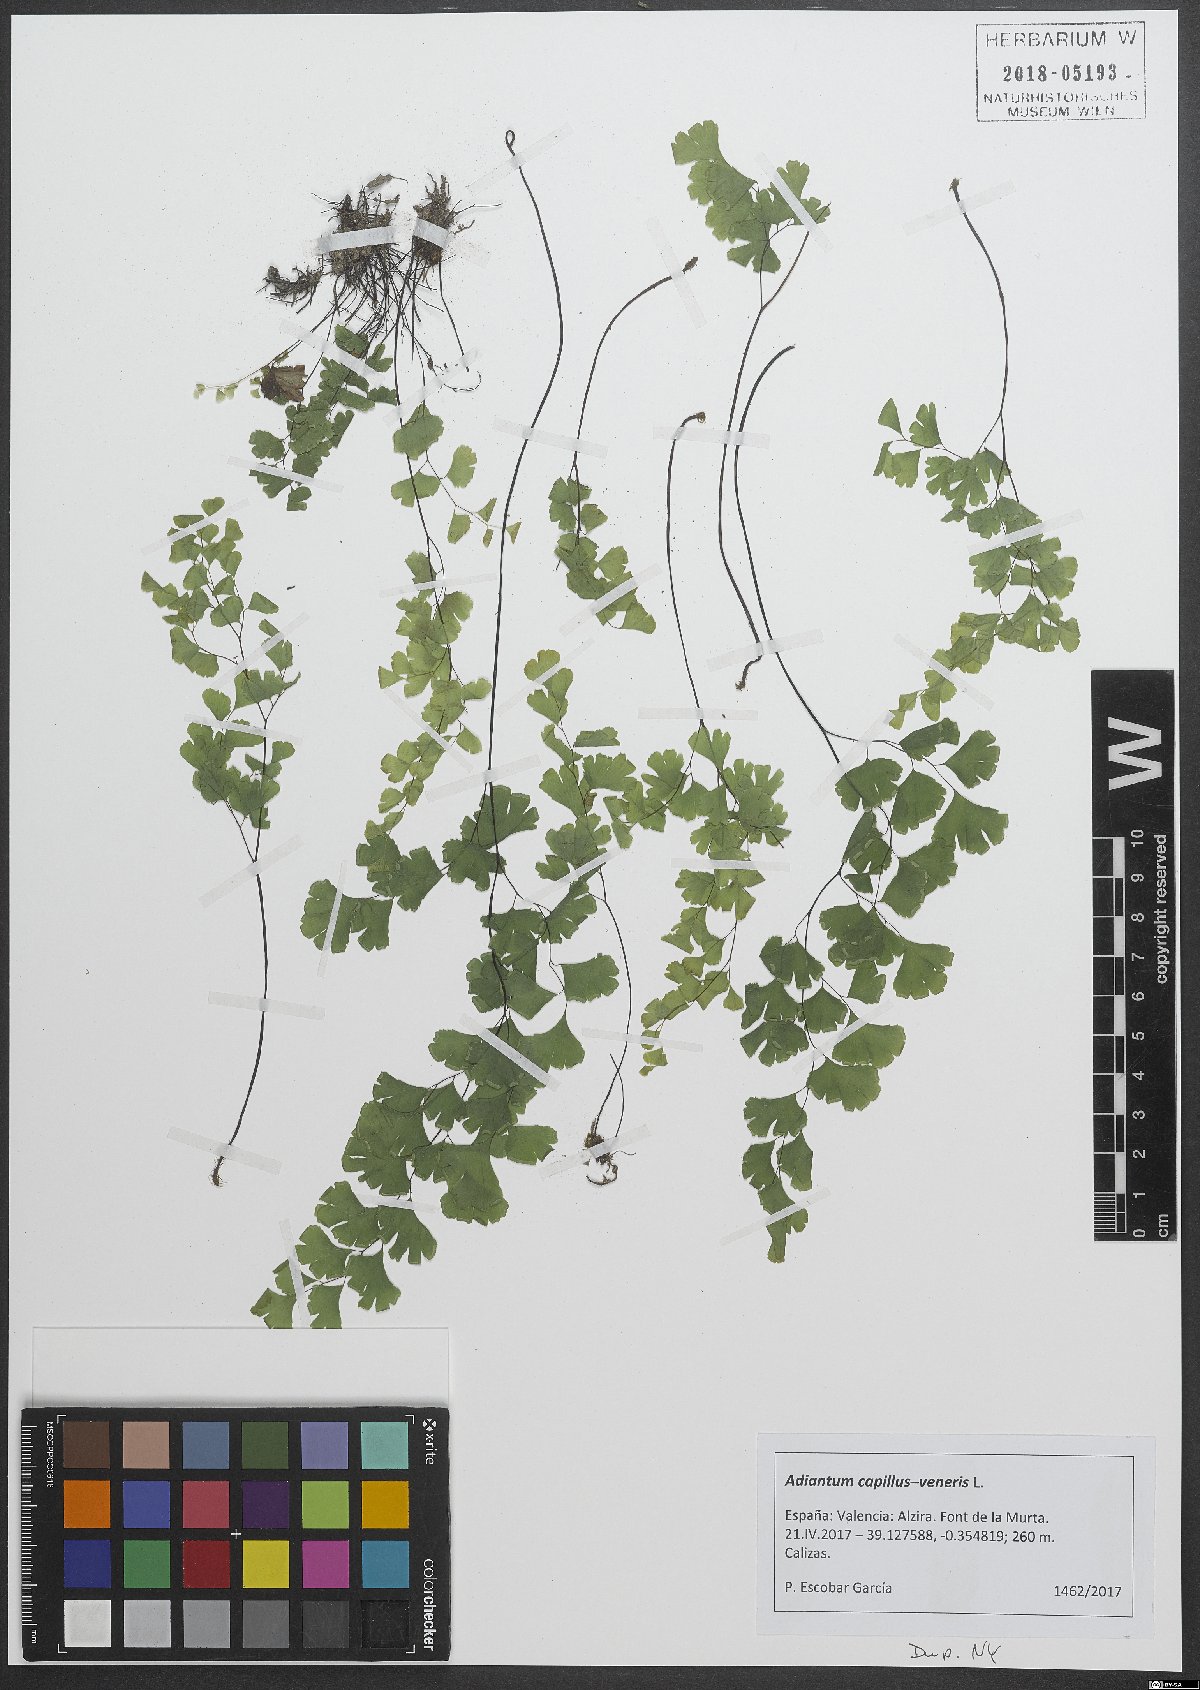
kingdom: Plantae
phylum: Tracheophyta
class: Polypodiopsida
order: Polypodiales
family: Pteridaceae
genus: Adiantum
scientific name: Adiantum capillus-veneris
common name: Maidenhair fern
